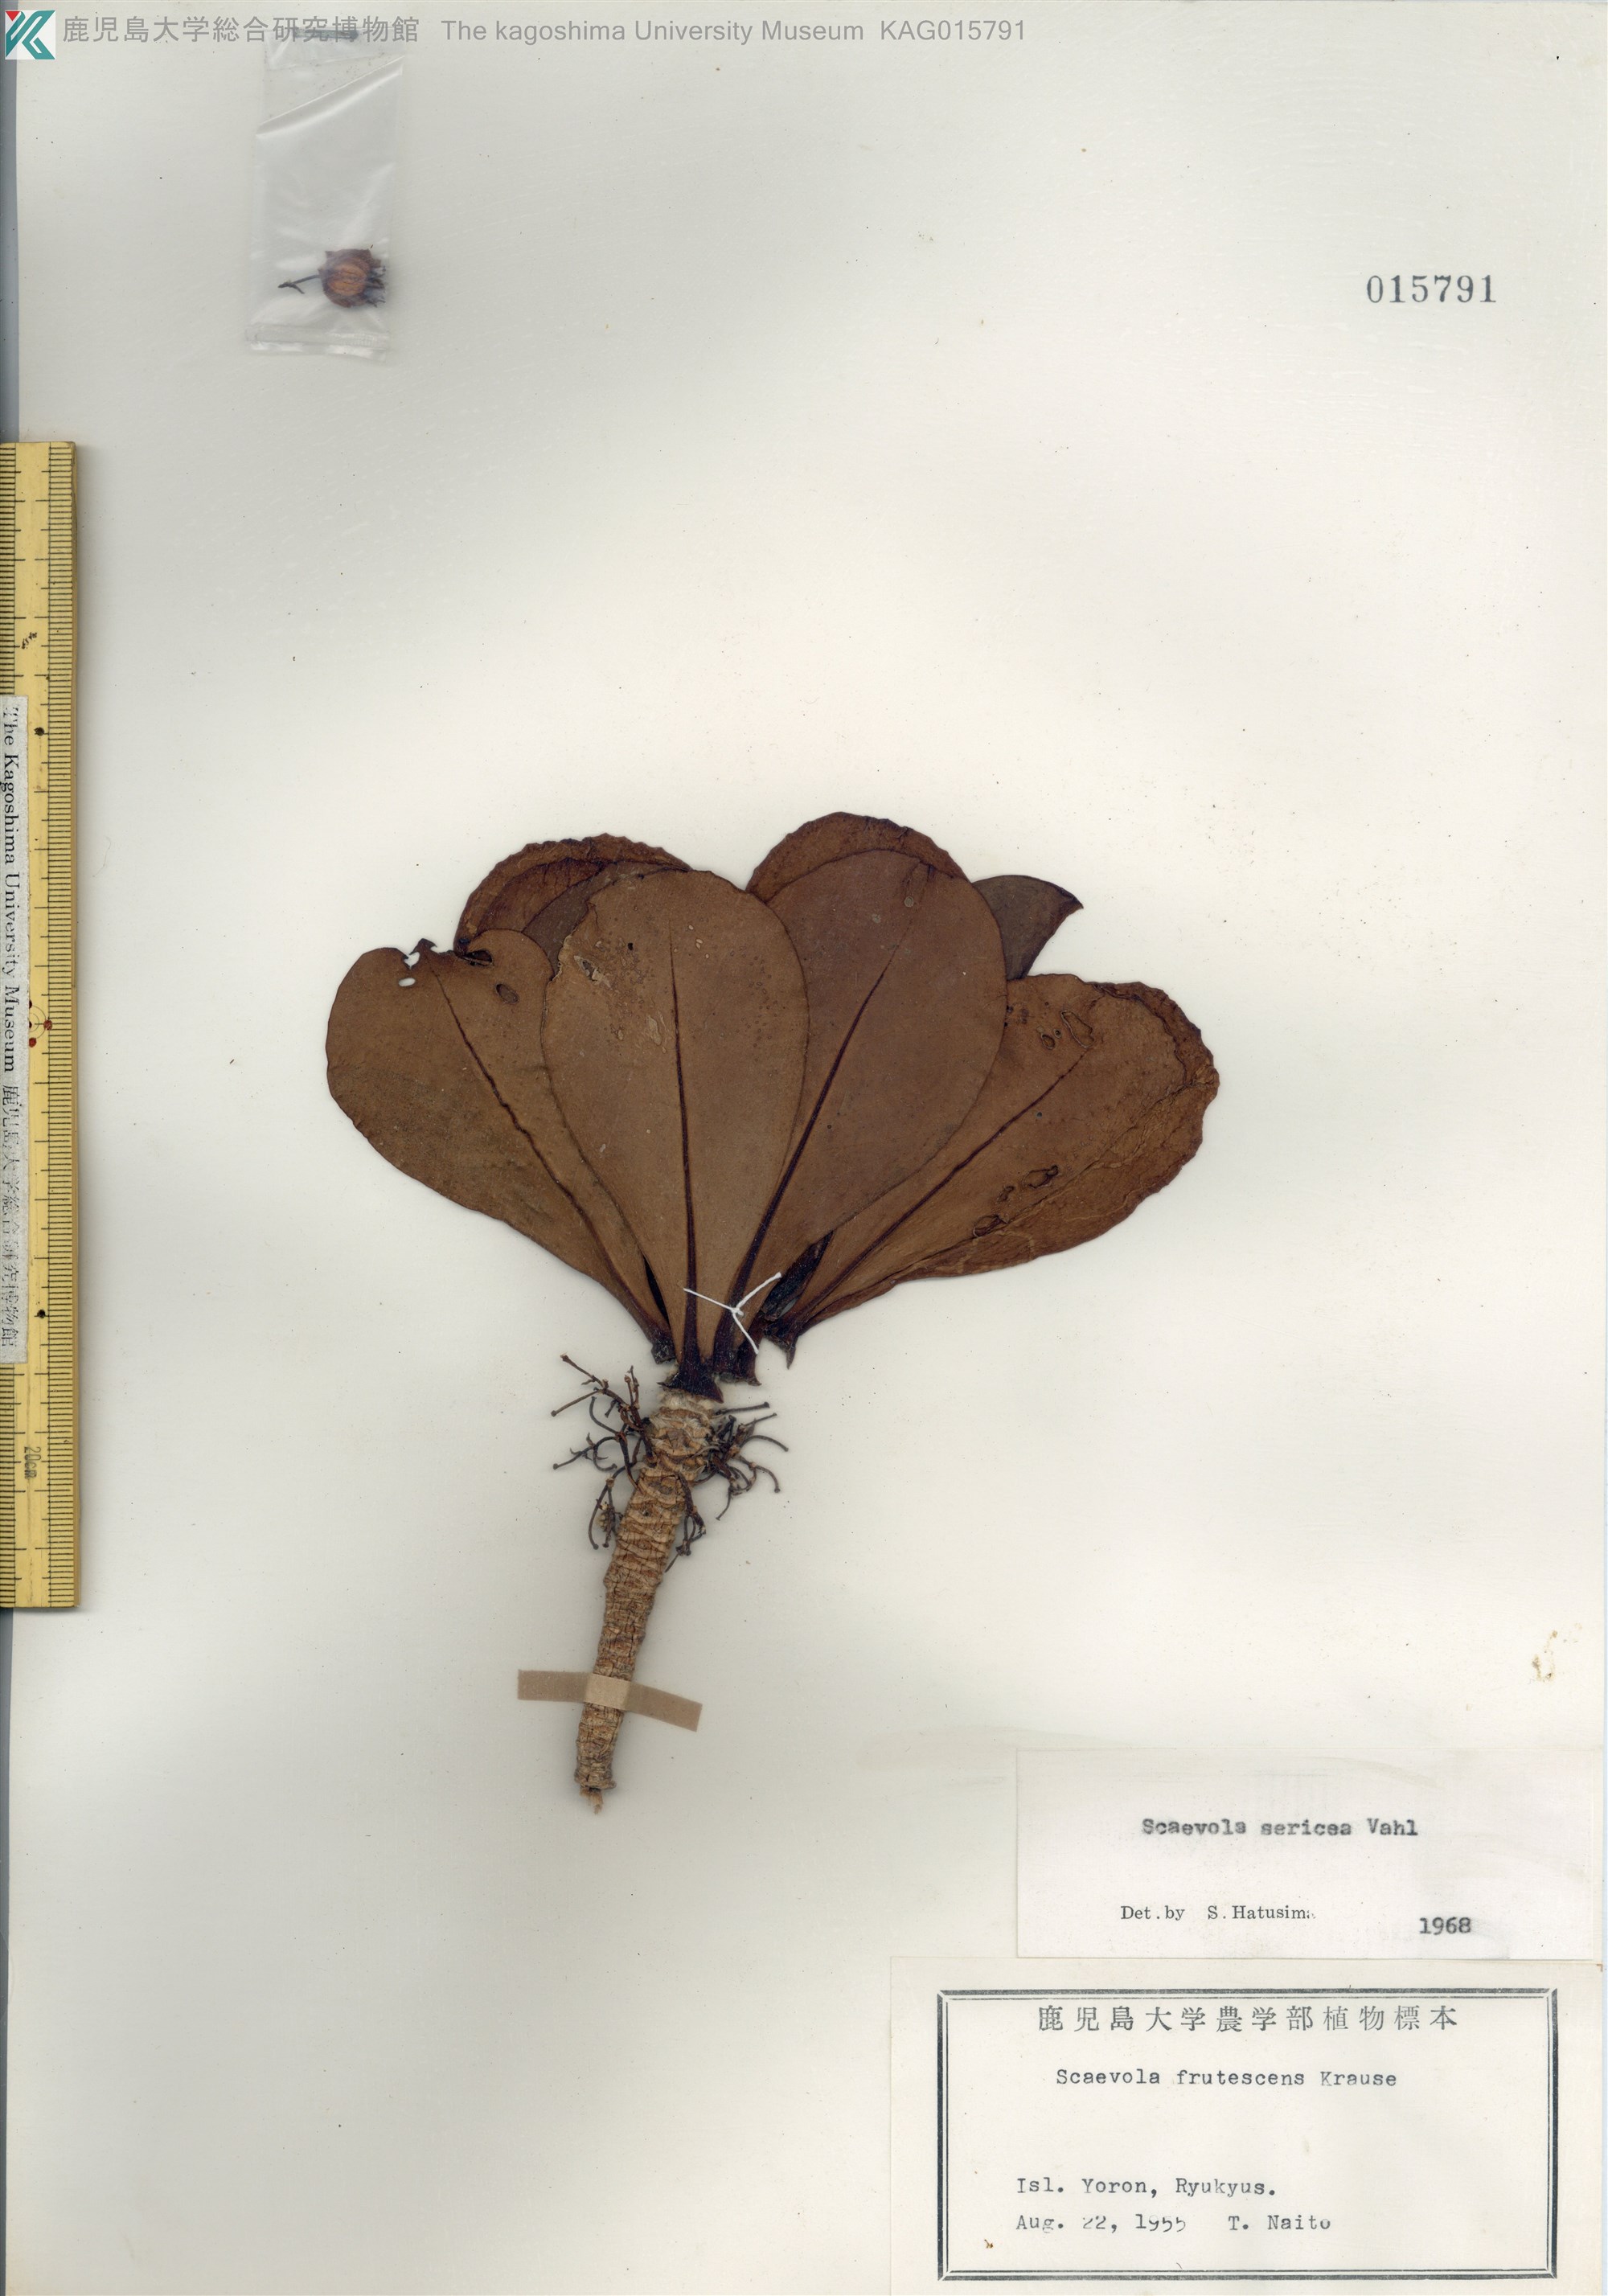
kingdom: Plantae
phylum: Tracheophyta
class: Magnoliopsida
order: Asterales
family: Goodeniaceae
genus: Scaevola
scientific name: Scaevola taccada
